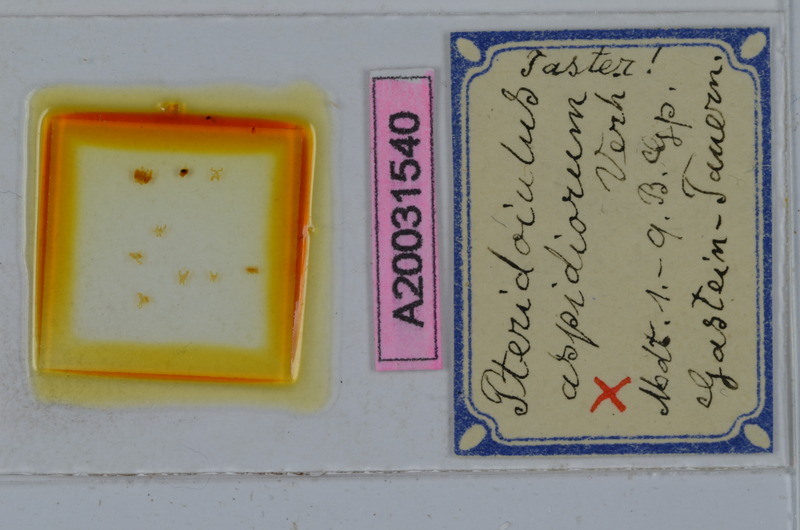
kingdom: Animalia
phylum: Arthropoda
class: Diplopoda
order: Julida
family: Julidae
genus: Pteridoiulus
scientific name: Pteridoiulus aspidiorum
